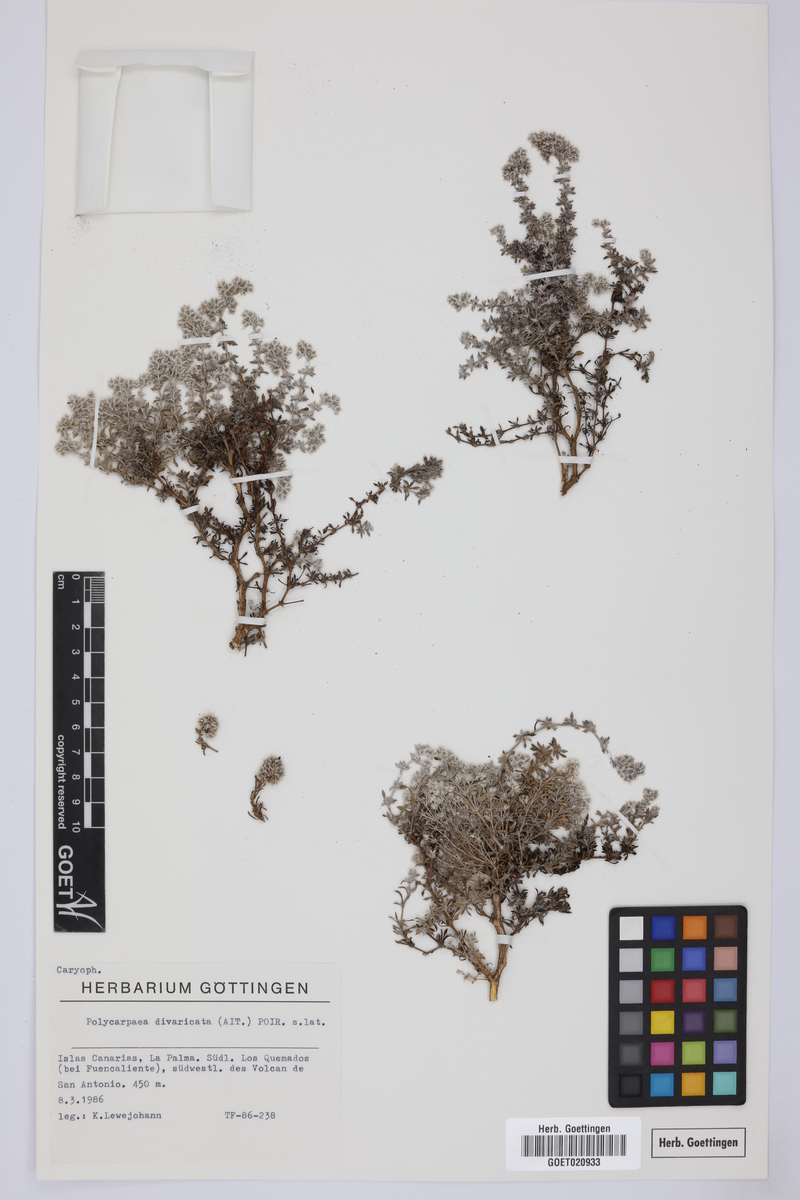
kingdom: Plantae
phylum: Tracheophyta
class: Magnoliopsida
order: Caryophyllales
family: Caryophyllaceae
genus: Polycarpaea
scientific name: Polycarpaea divaricata
